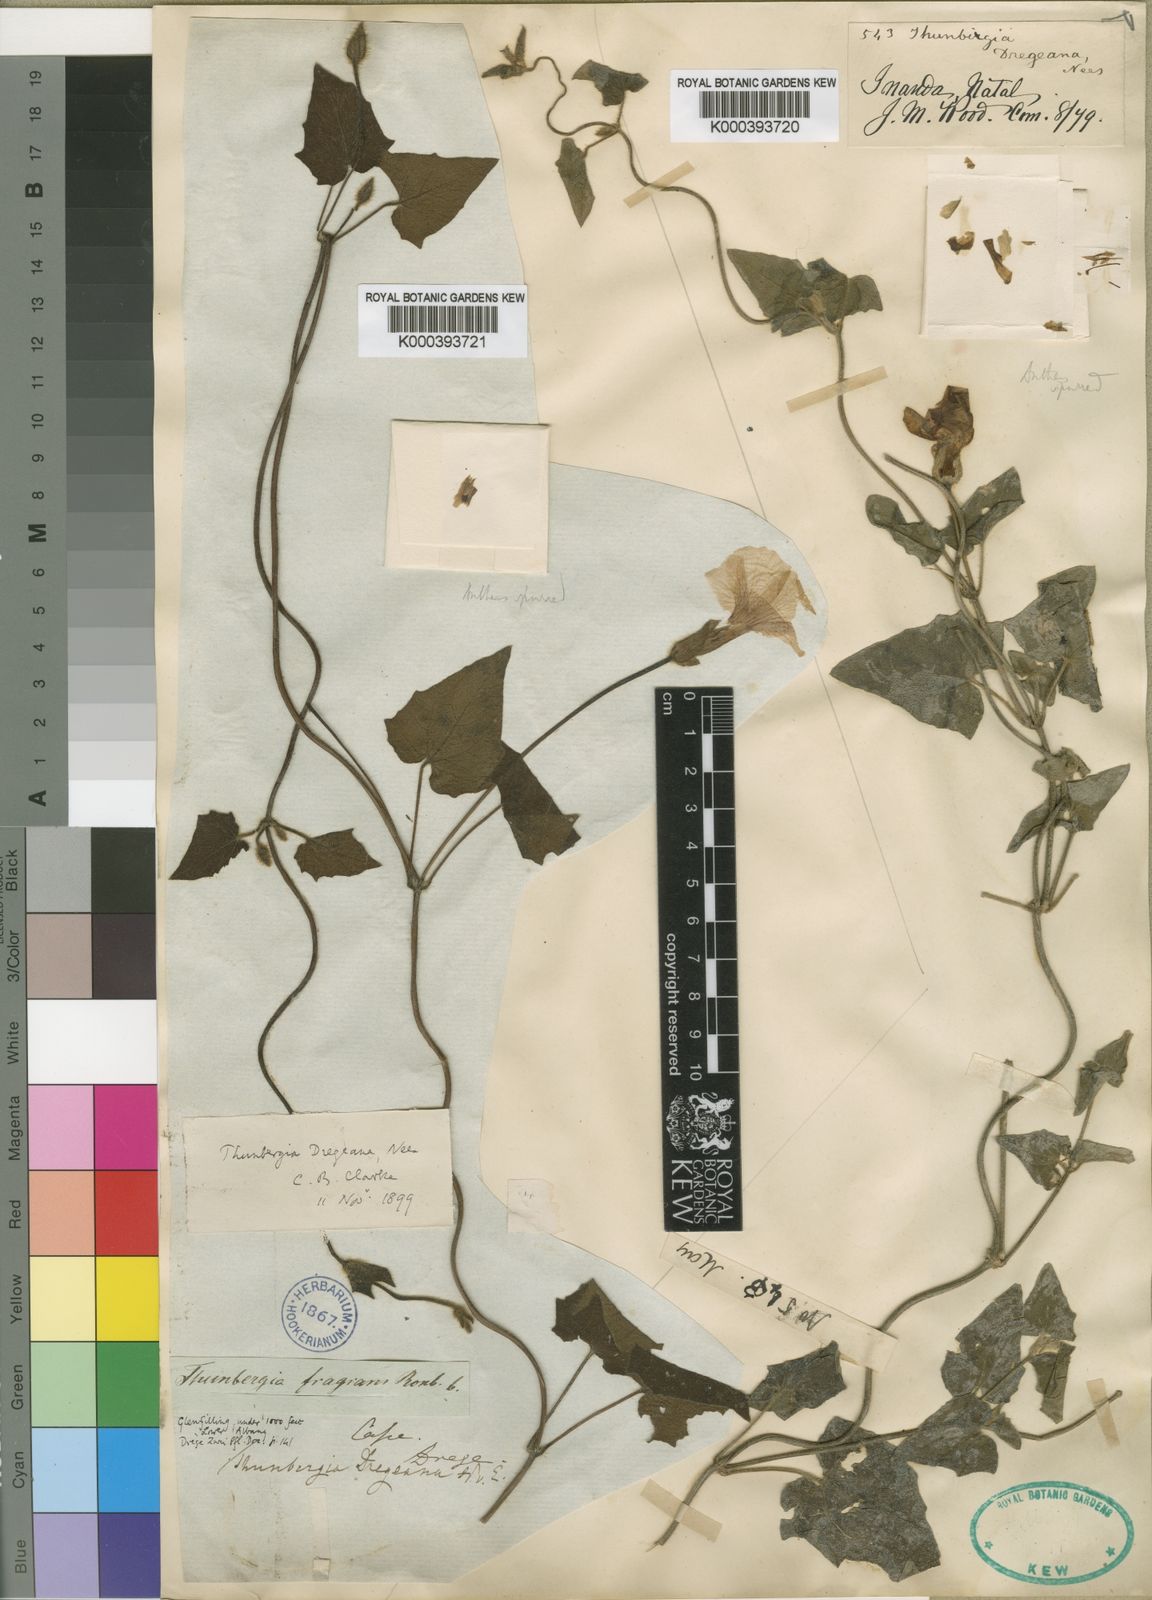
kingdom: Plantae
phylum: Tracheophyta
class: Magnoliopsida
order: Lamiales
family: Acanthaceae
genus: Thunbergia
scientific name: Thunbergia
